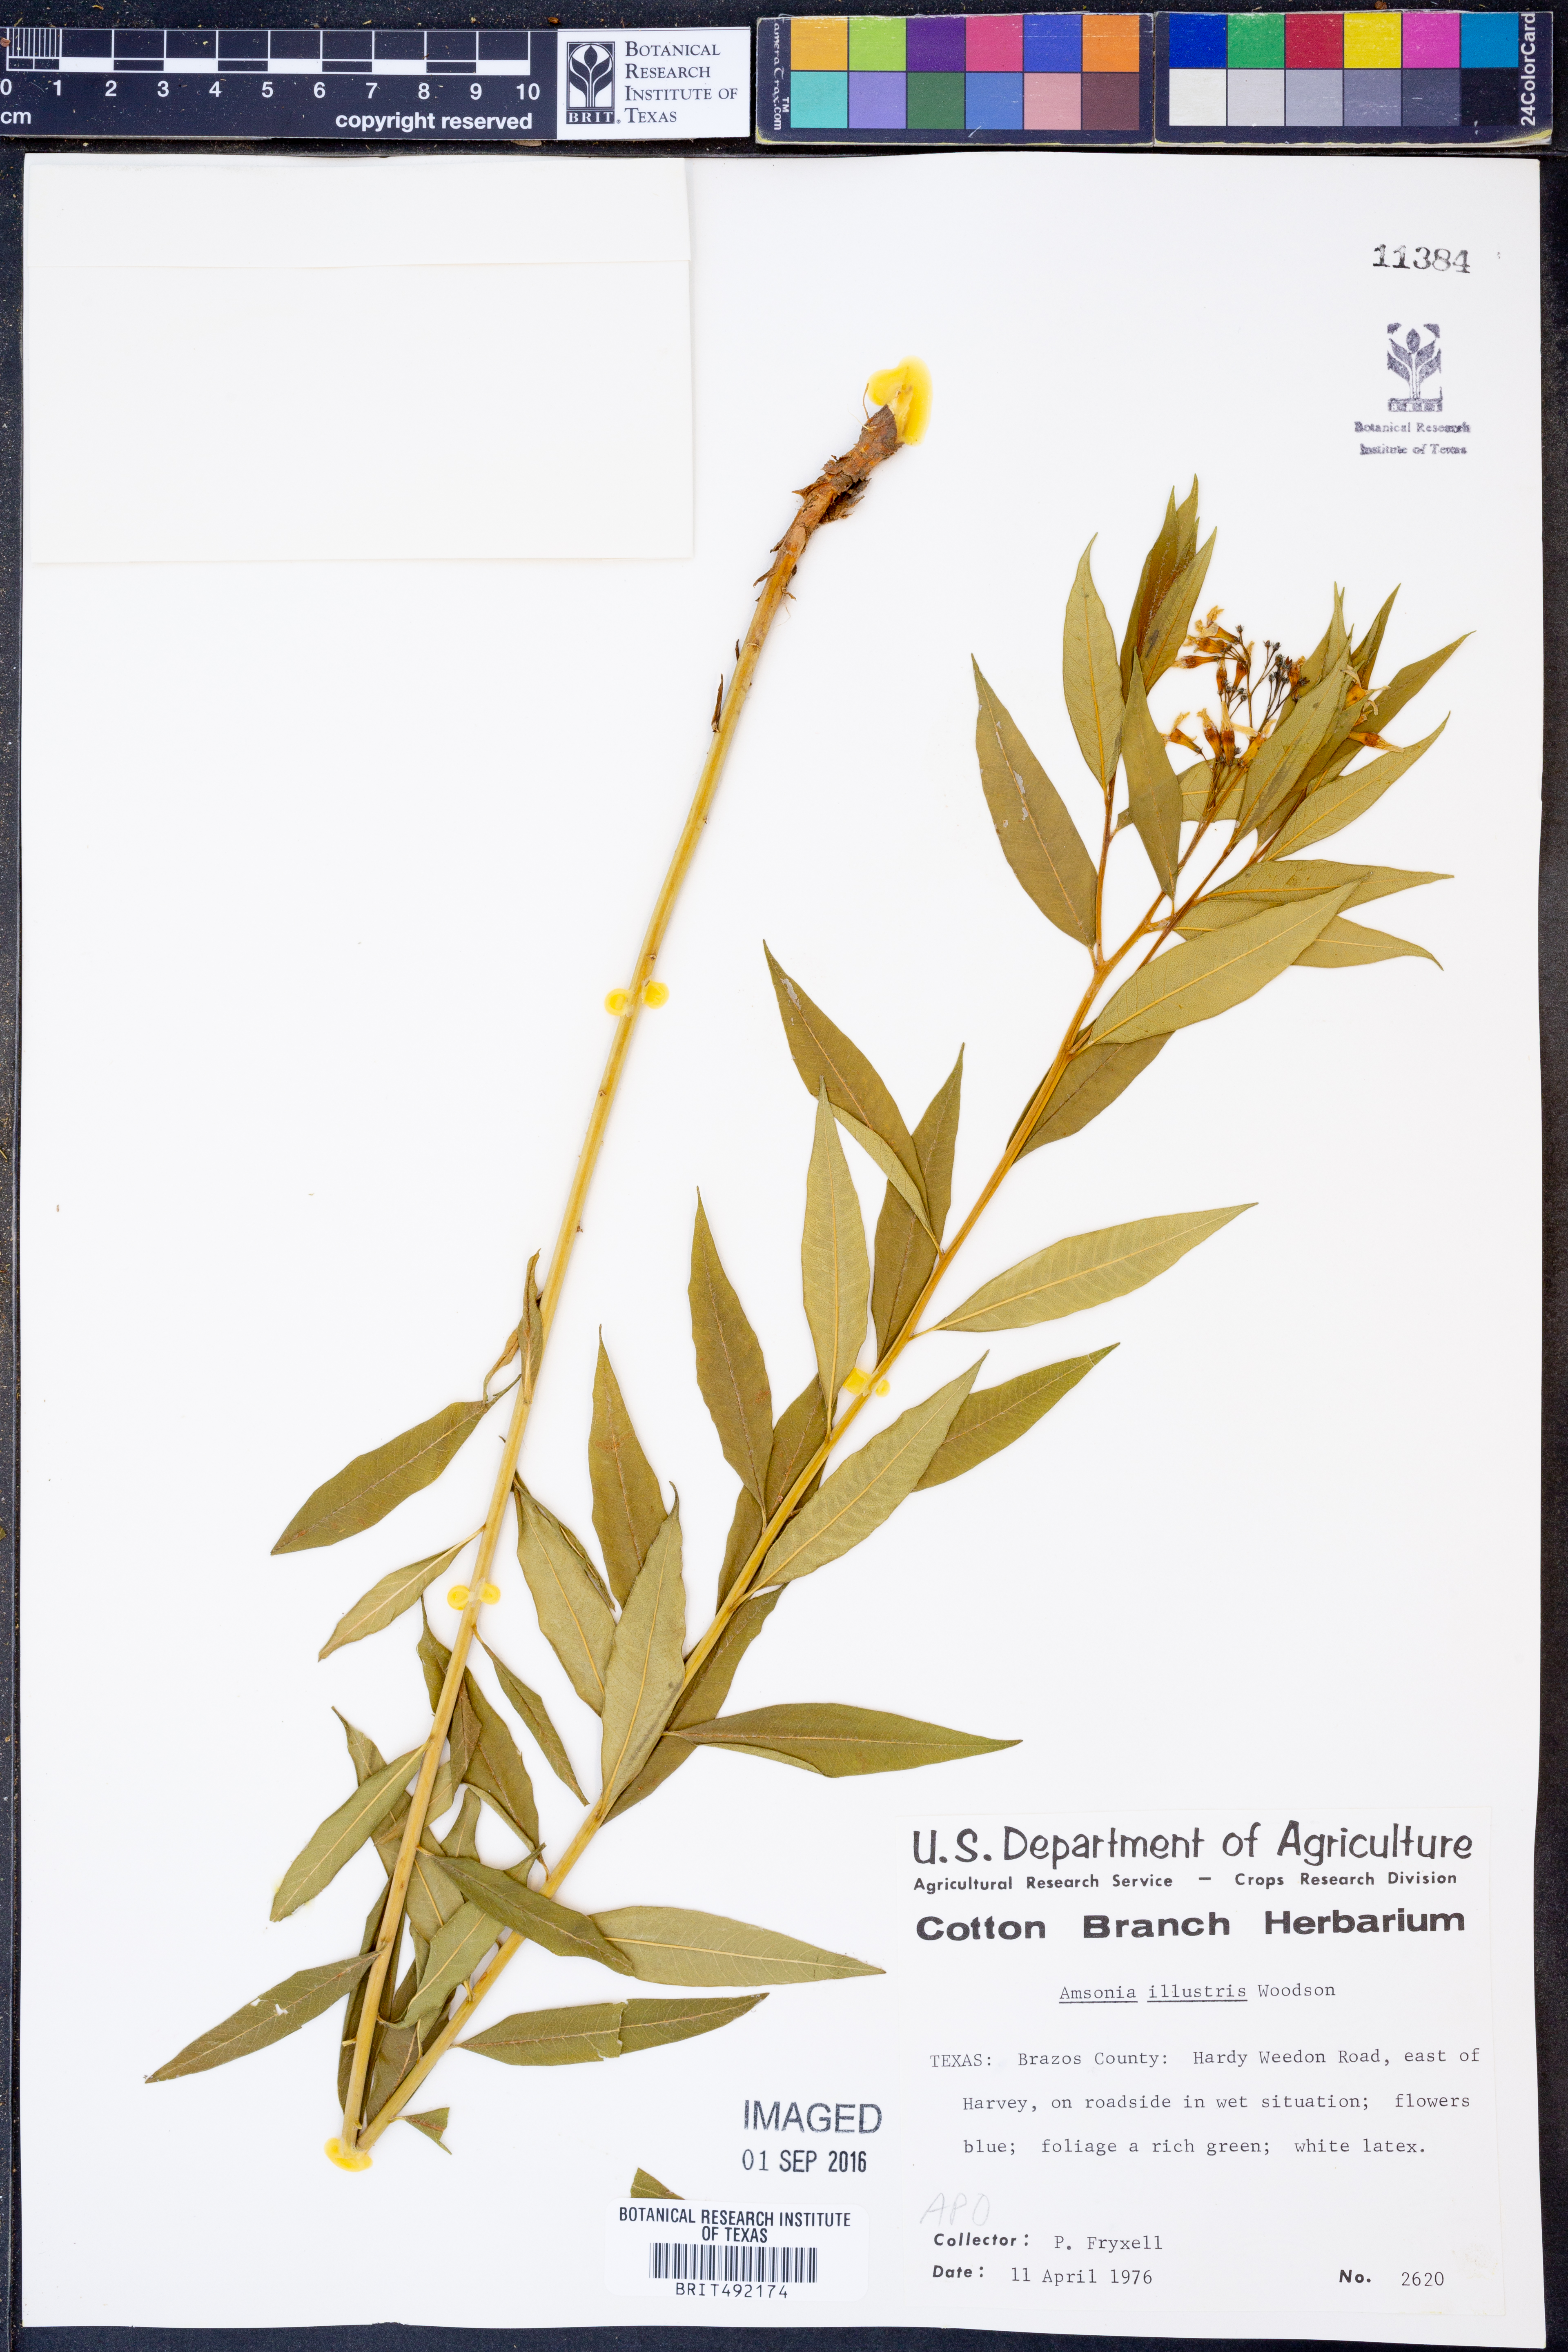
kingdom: Plantae
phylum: Tracheophyta
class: Magnoliopsida
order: Gentianales
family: Apocynaceae
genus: Amsonia
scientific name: Amsonia tabernaemontana
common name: Texas-star
